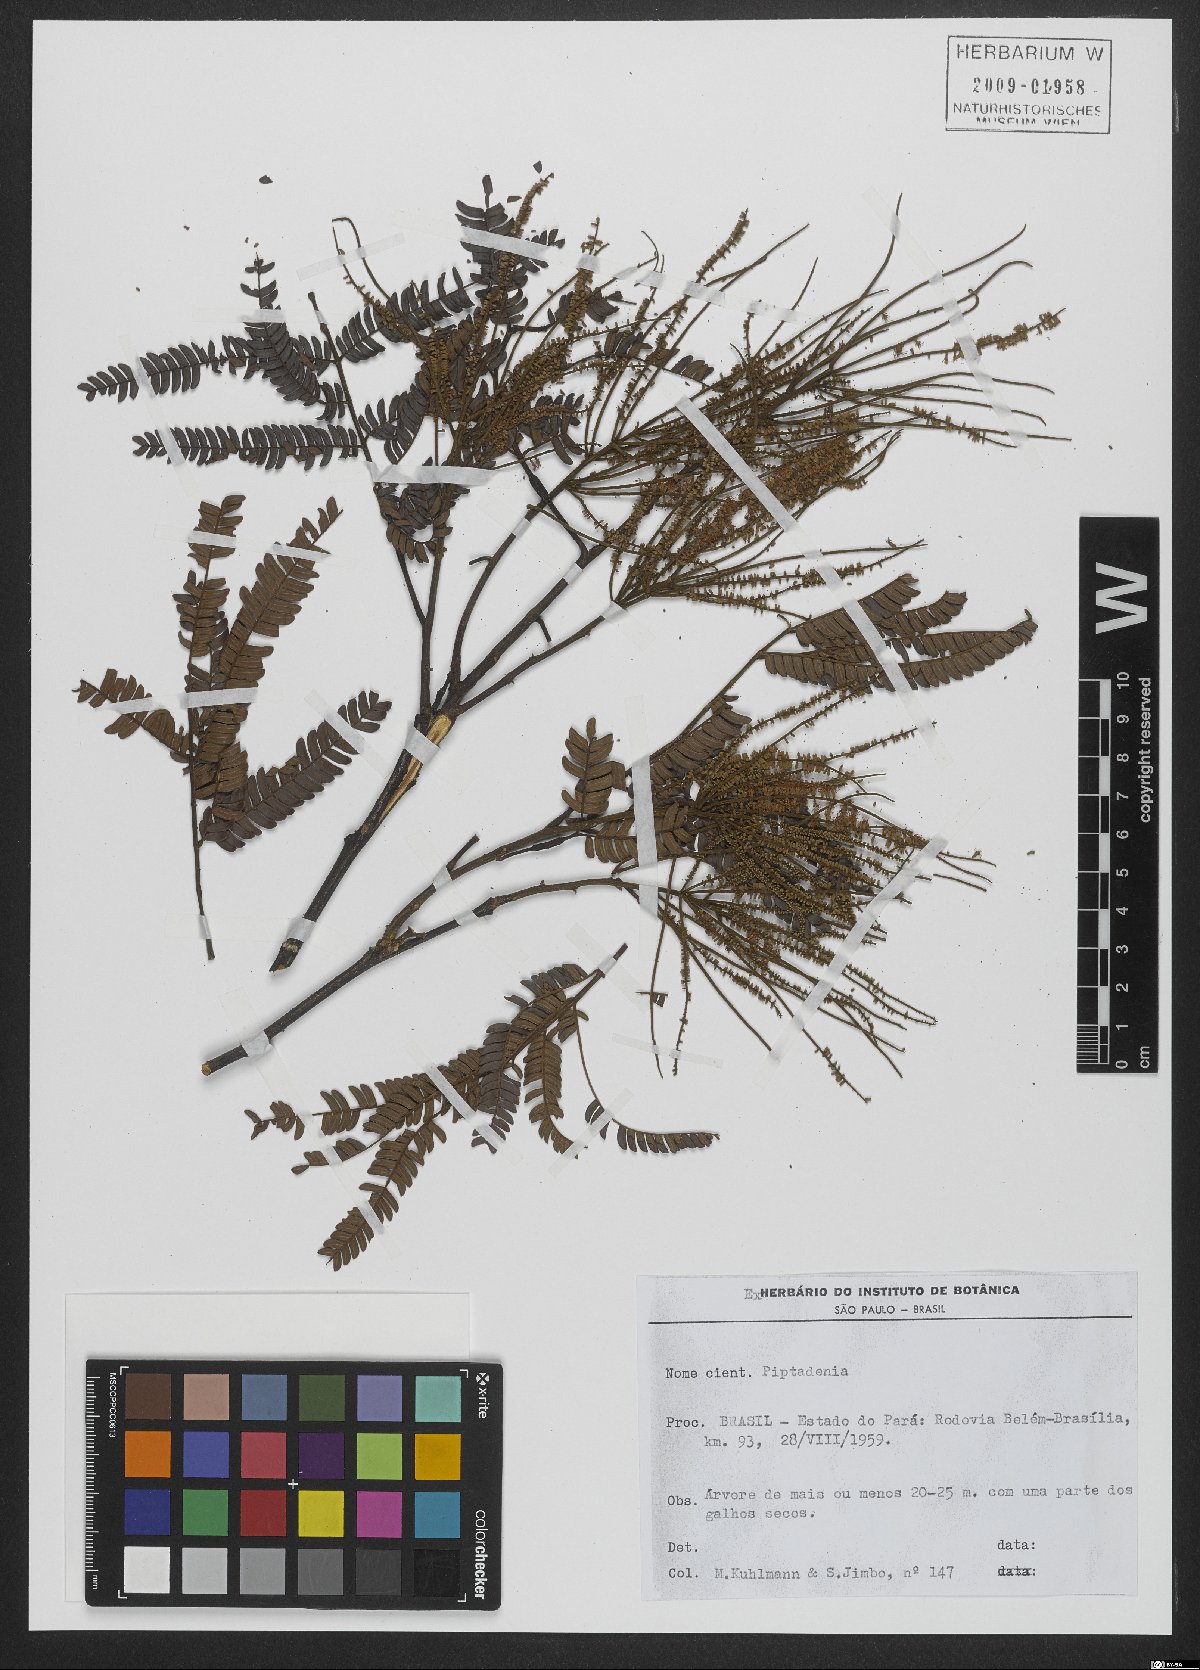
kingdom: Plantae
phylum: Tracheophyta
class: Magnoliopsida
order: Fabales
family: Fabaceae
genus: Piptadenia
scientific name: Piptadenia
